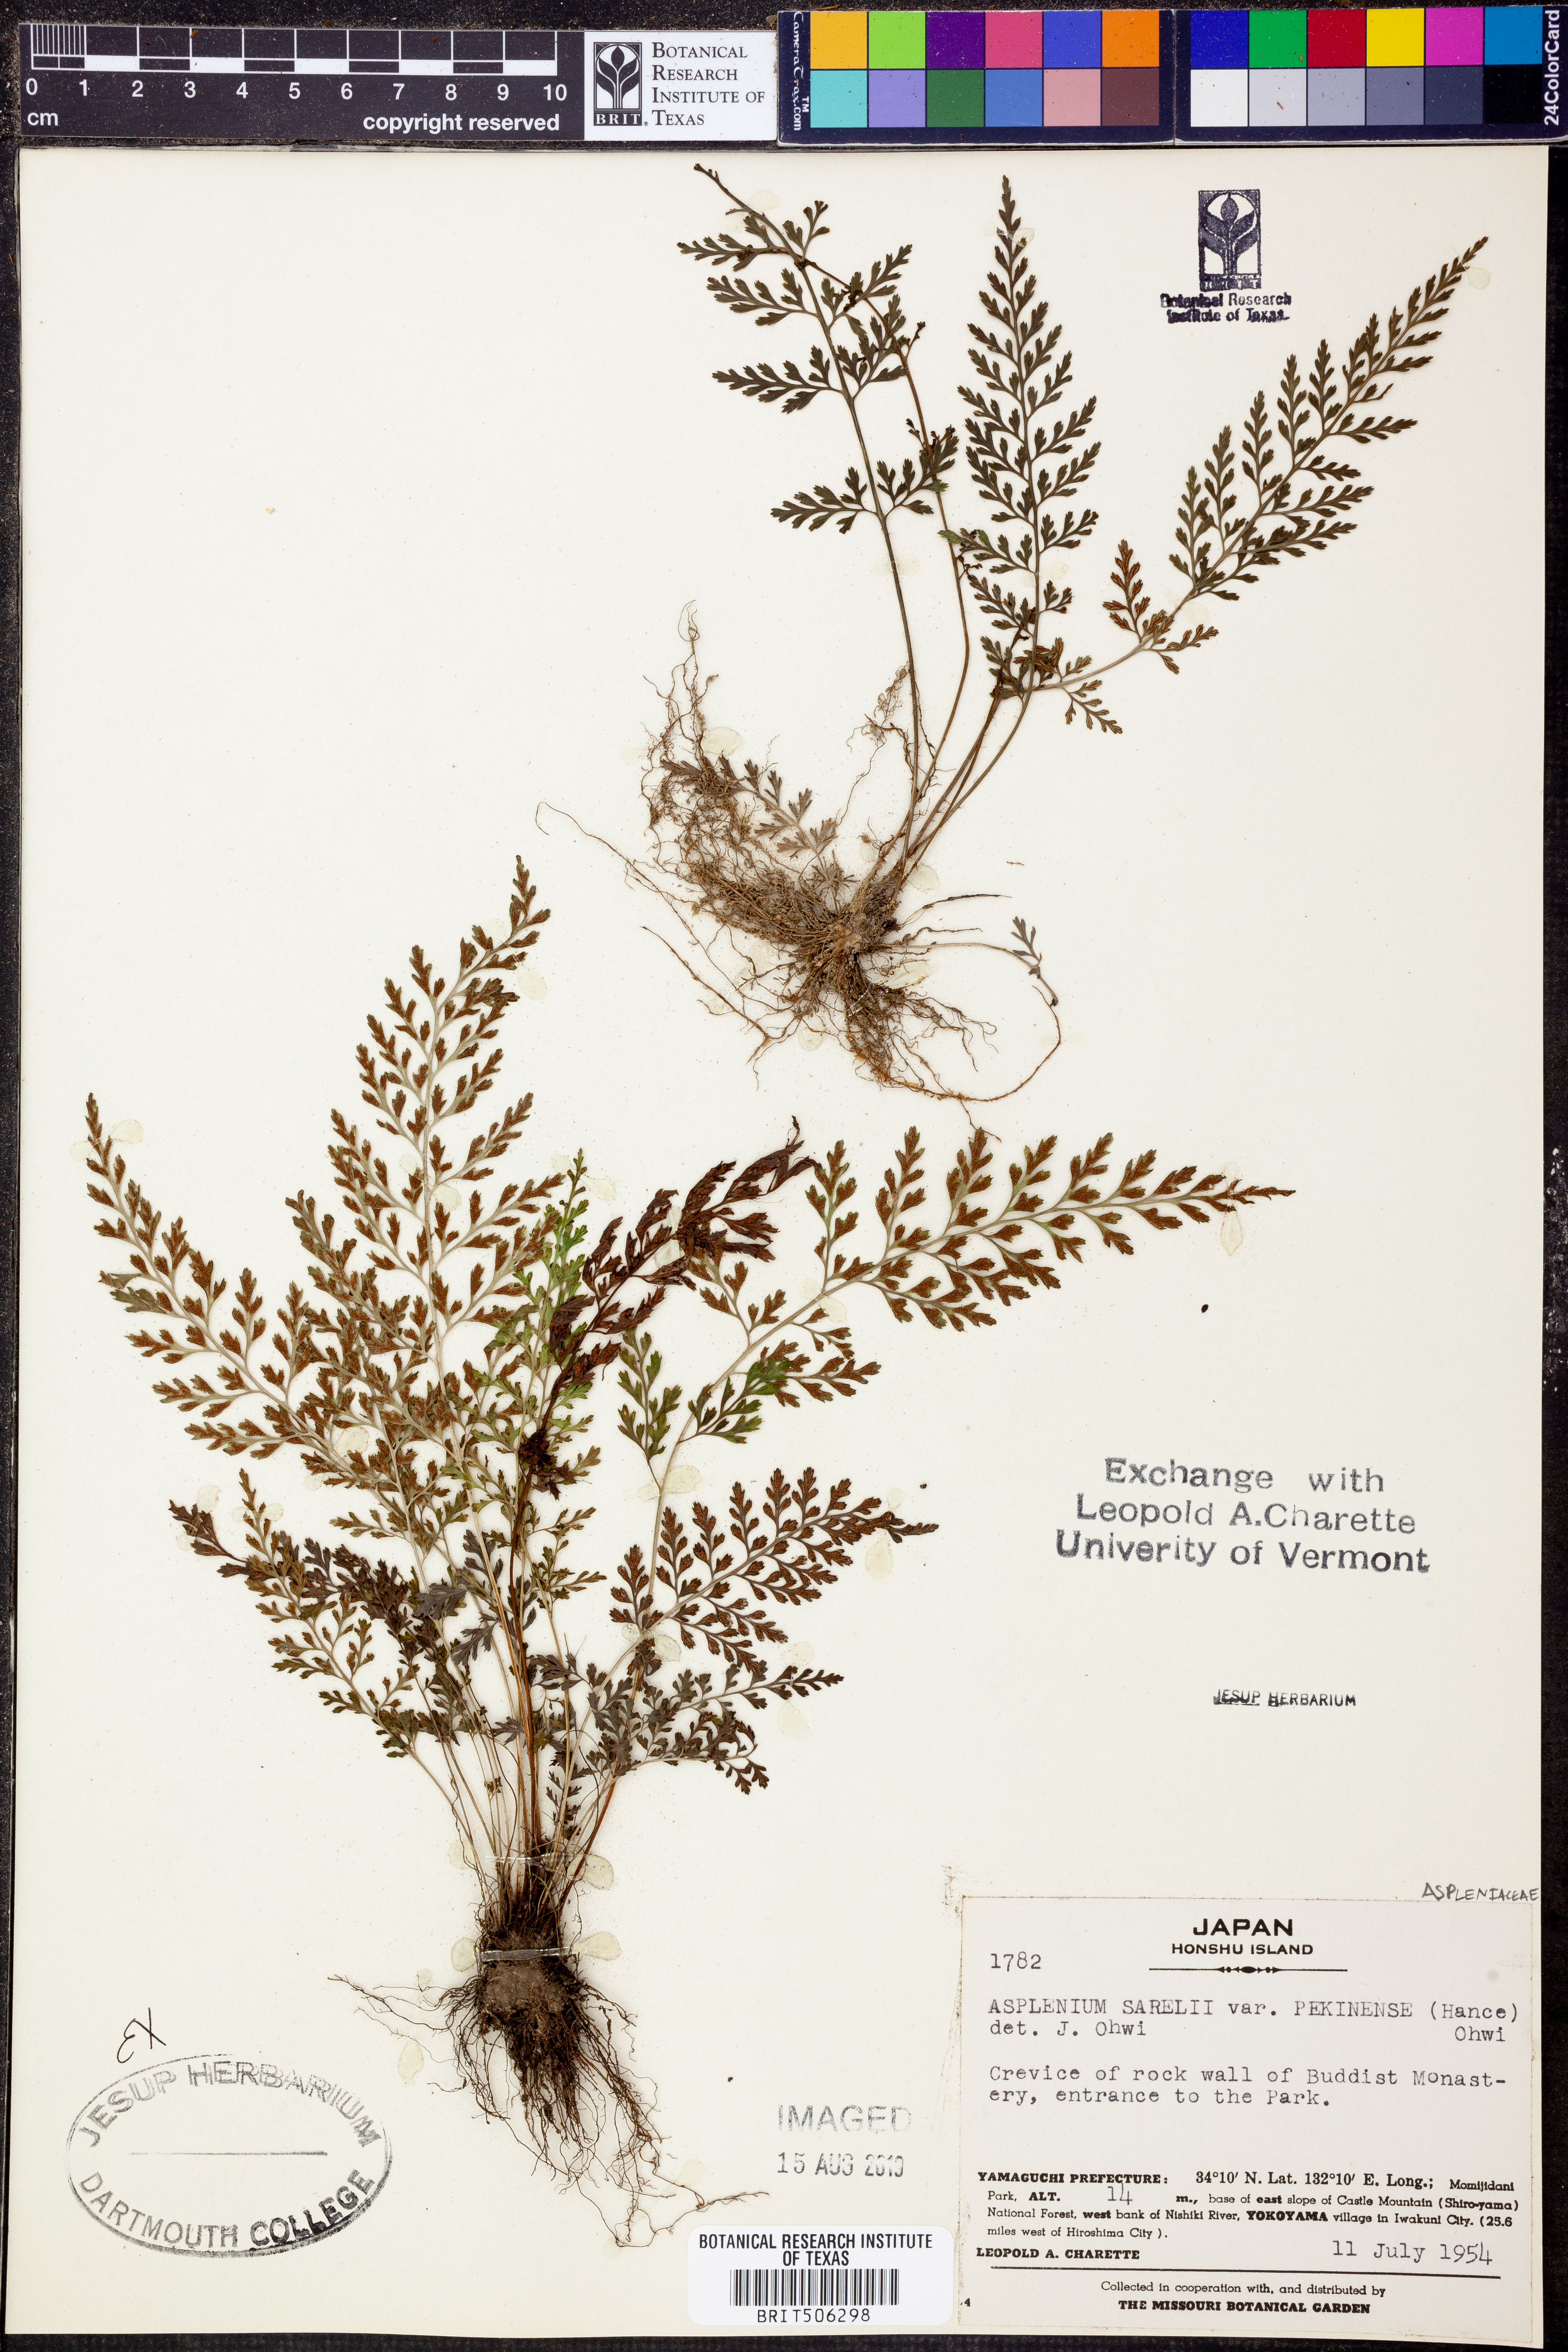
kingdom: Plantae
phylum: Tracheophyta
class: Polypodiopsida
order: Polypodiales
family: Aspleniaceae
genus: Asplenium
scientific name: Asplenium sarelii
